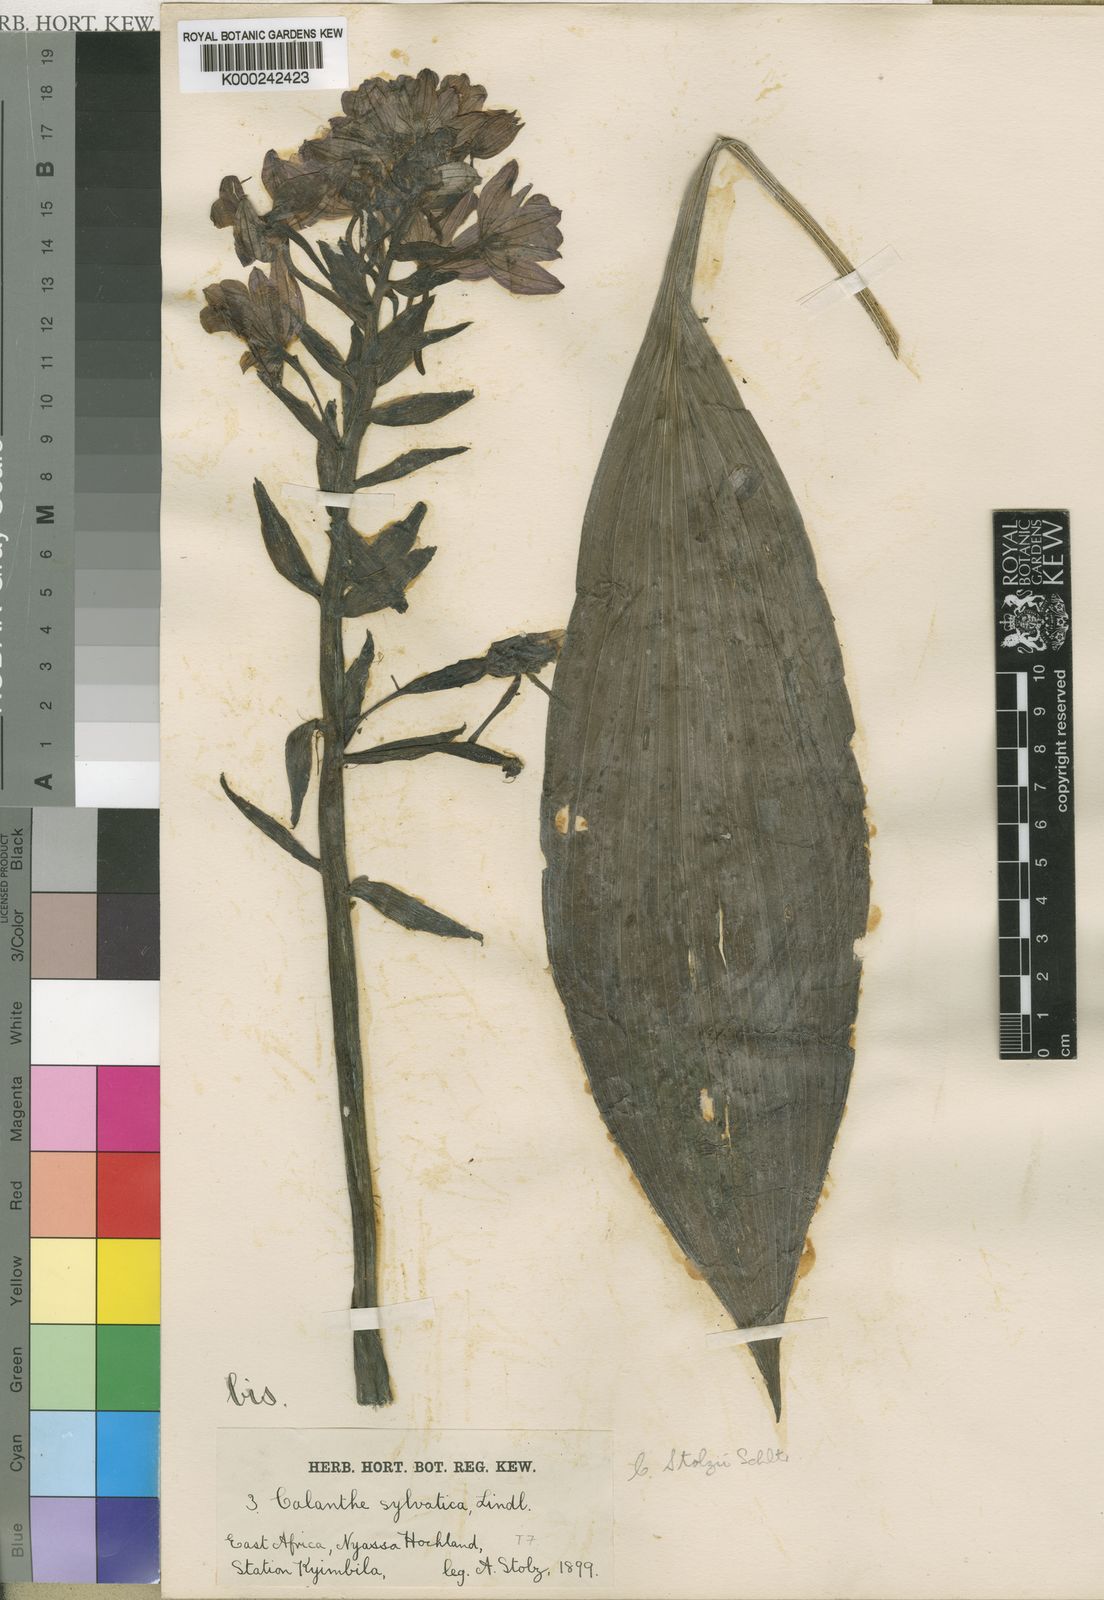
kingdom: Plantae
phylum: Tracheophyta
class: Liliopsida
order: Asparagales
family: Orchidaceae
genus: Calanthe
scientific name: Calanthe sylvatica
